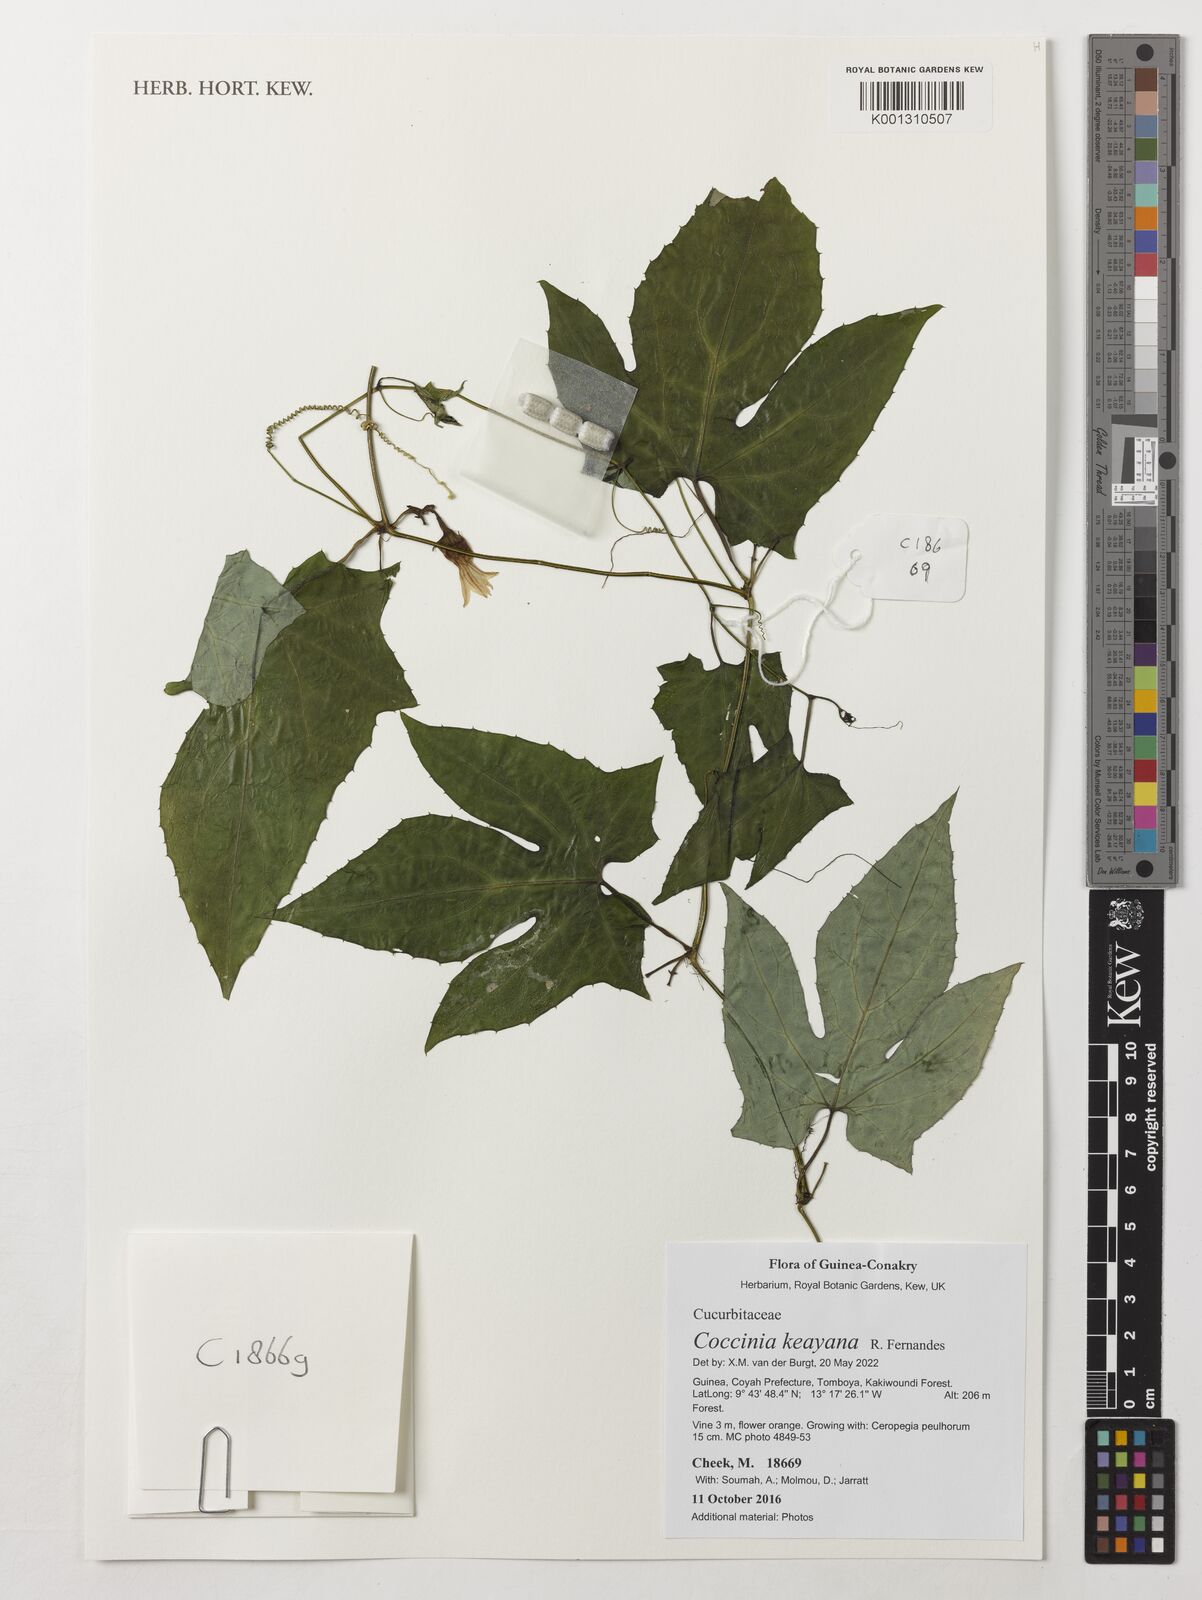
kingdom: Plantae
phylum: Tracheophyta
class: Magnoliopsida
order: Cucurbitales
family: Cucurbitaceae
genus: Coccinia
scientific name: Coccinia keayana
